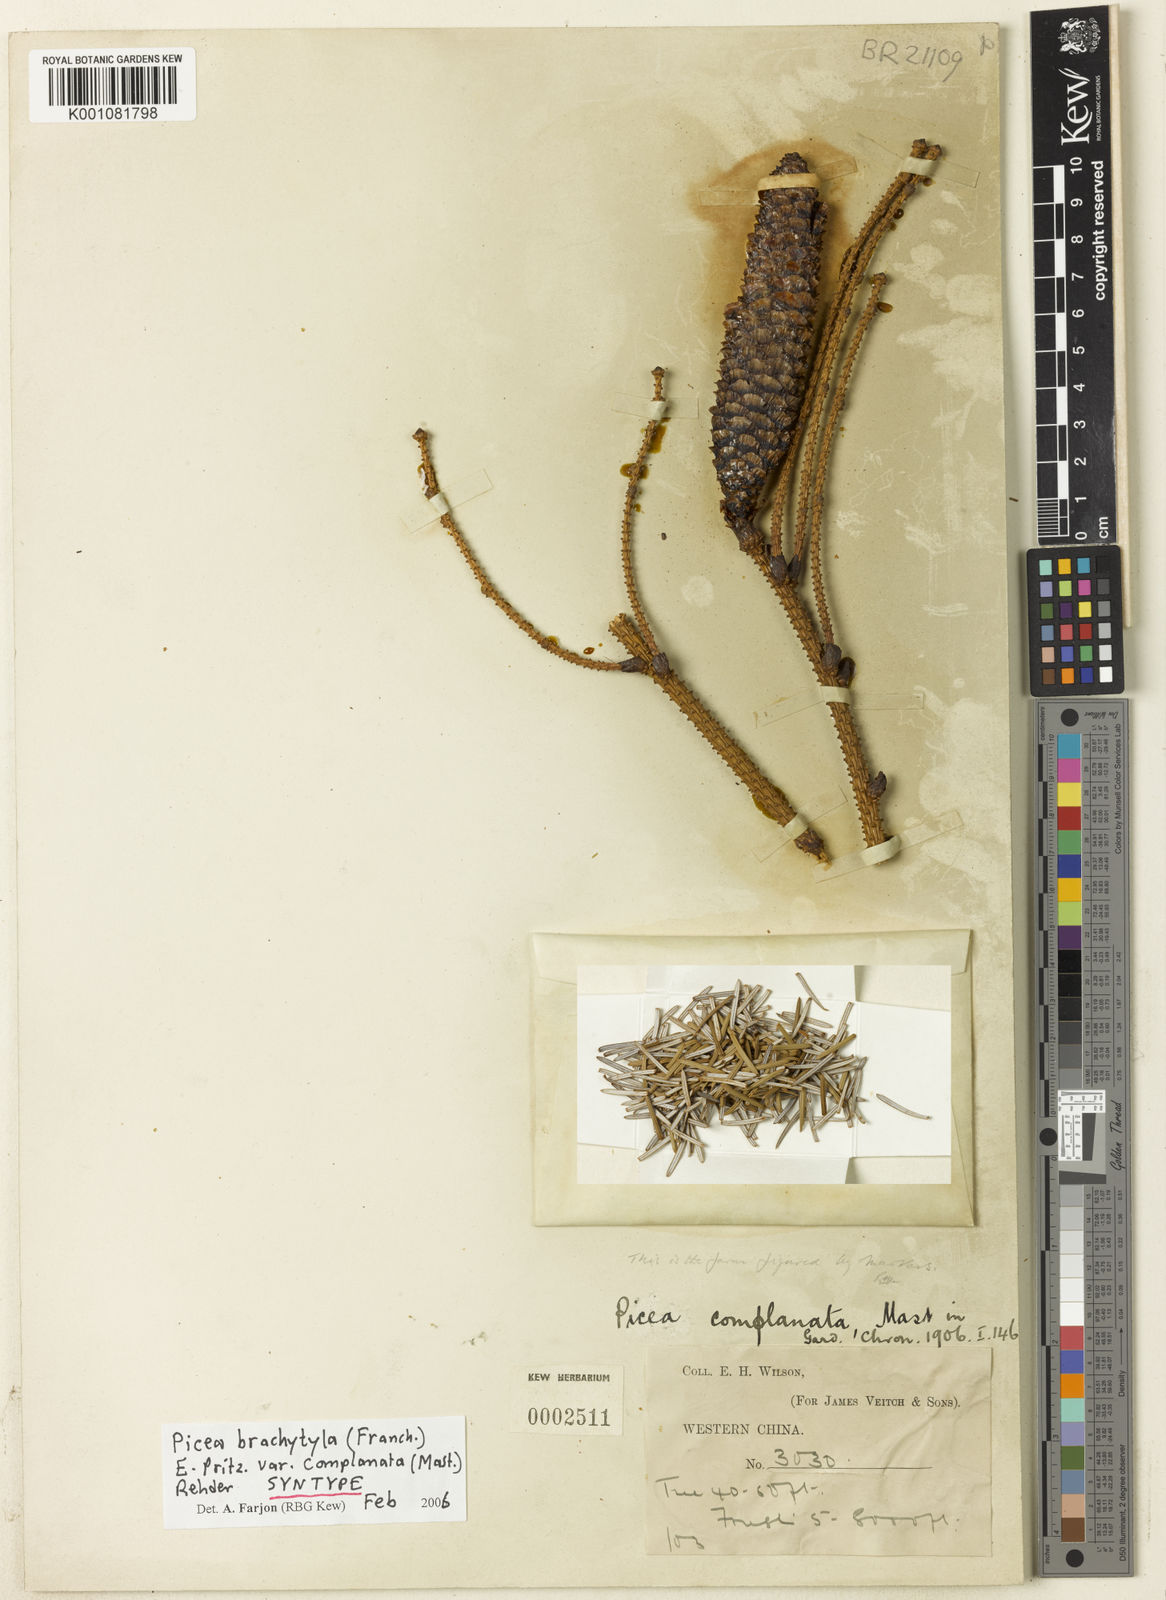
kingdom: Plantae
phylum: Tracheophyta
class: Pinopsida
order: Pinales
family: Pinaceae
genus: Picea
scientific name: Picea brachytyla
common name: Sargent's spruce
